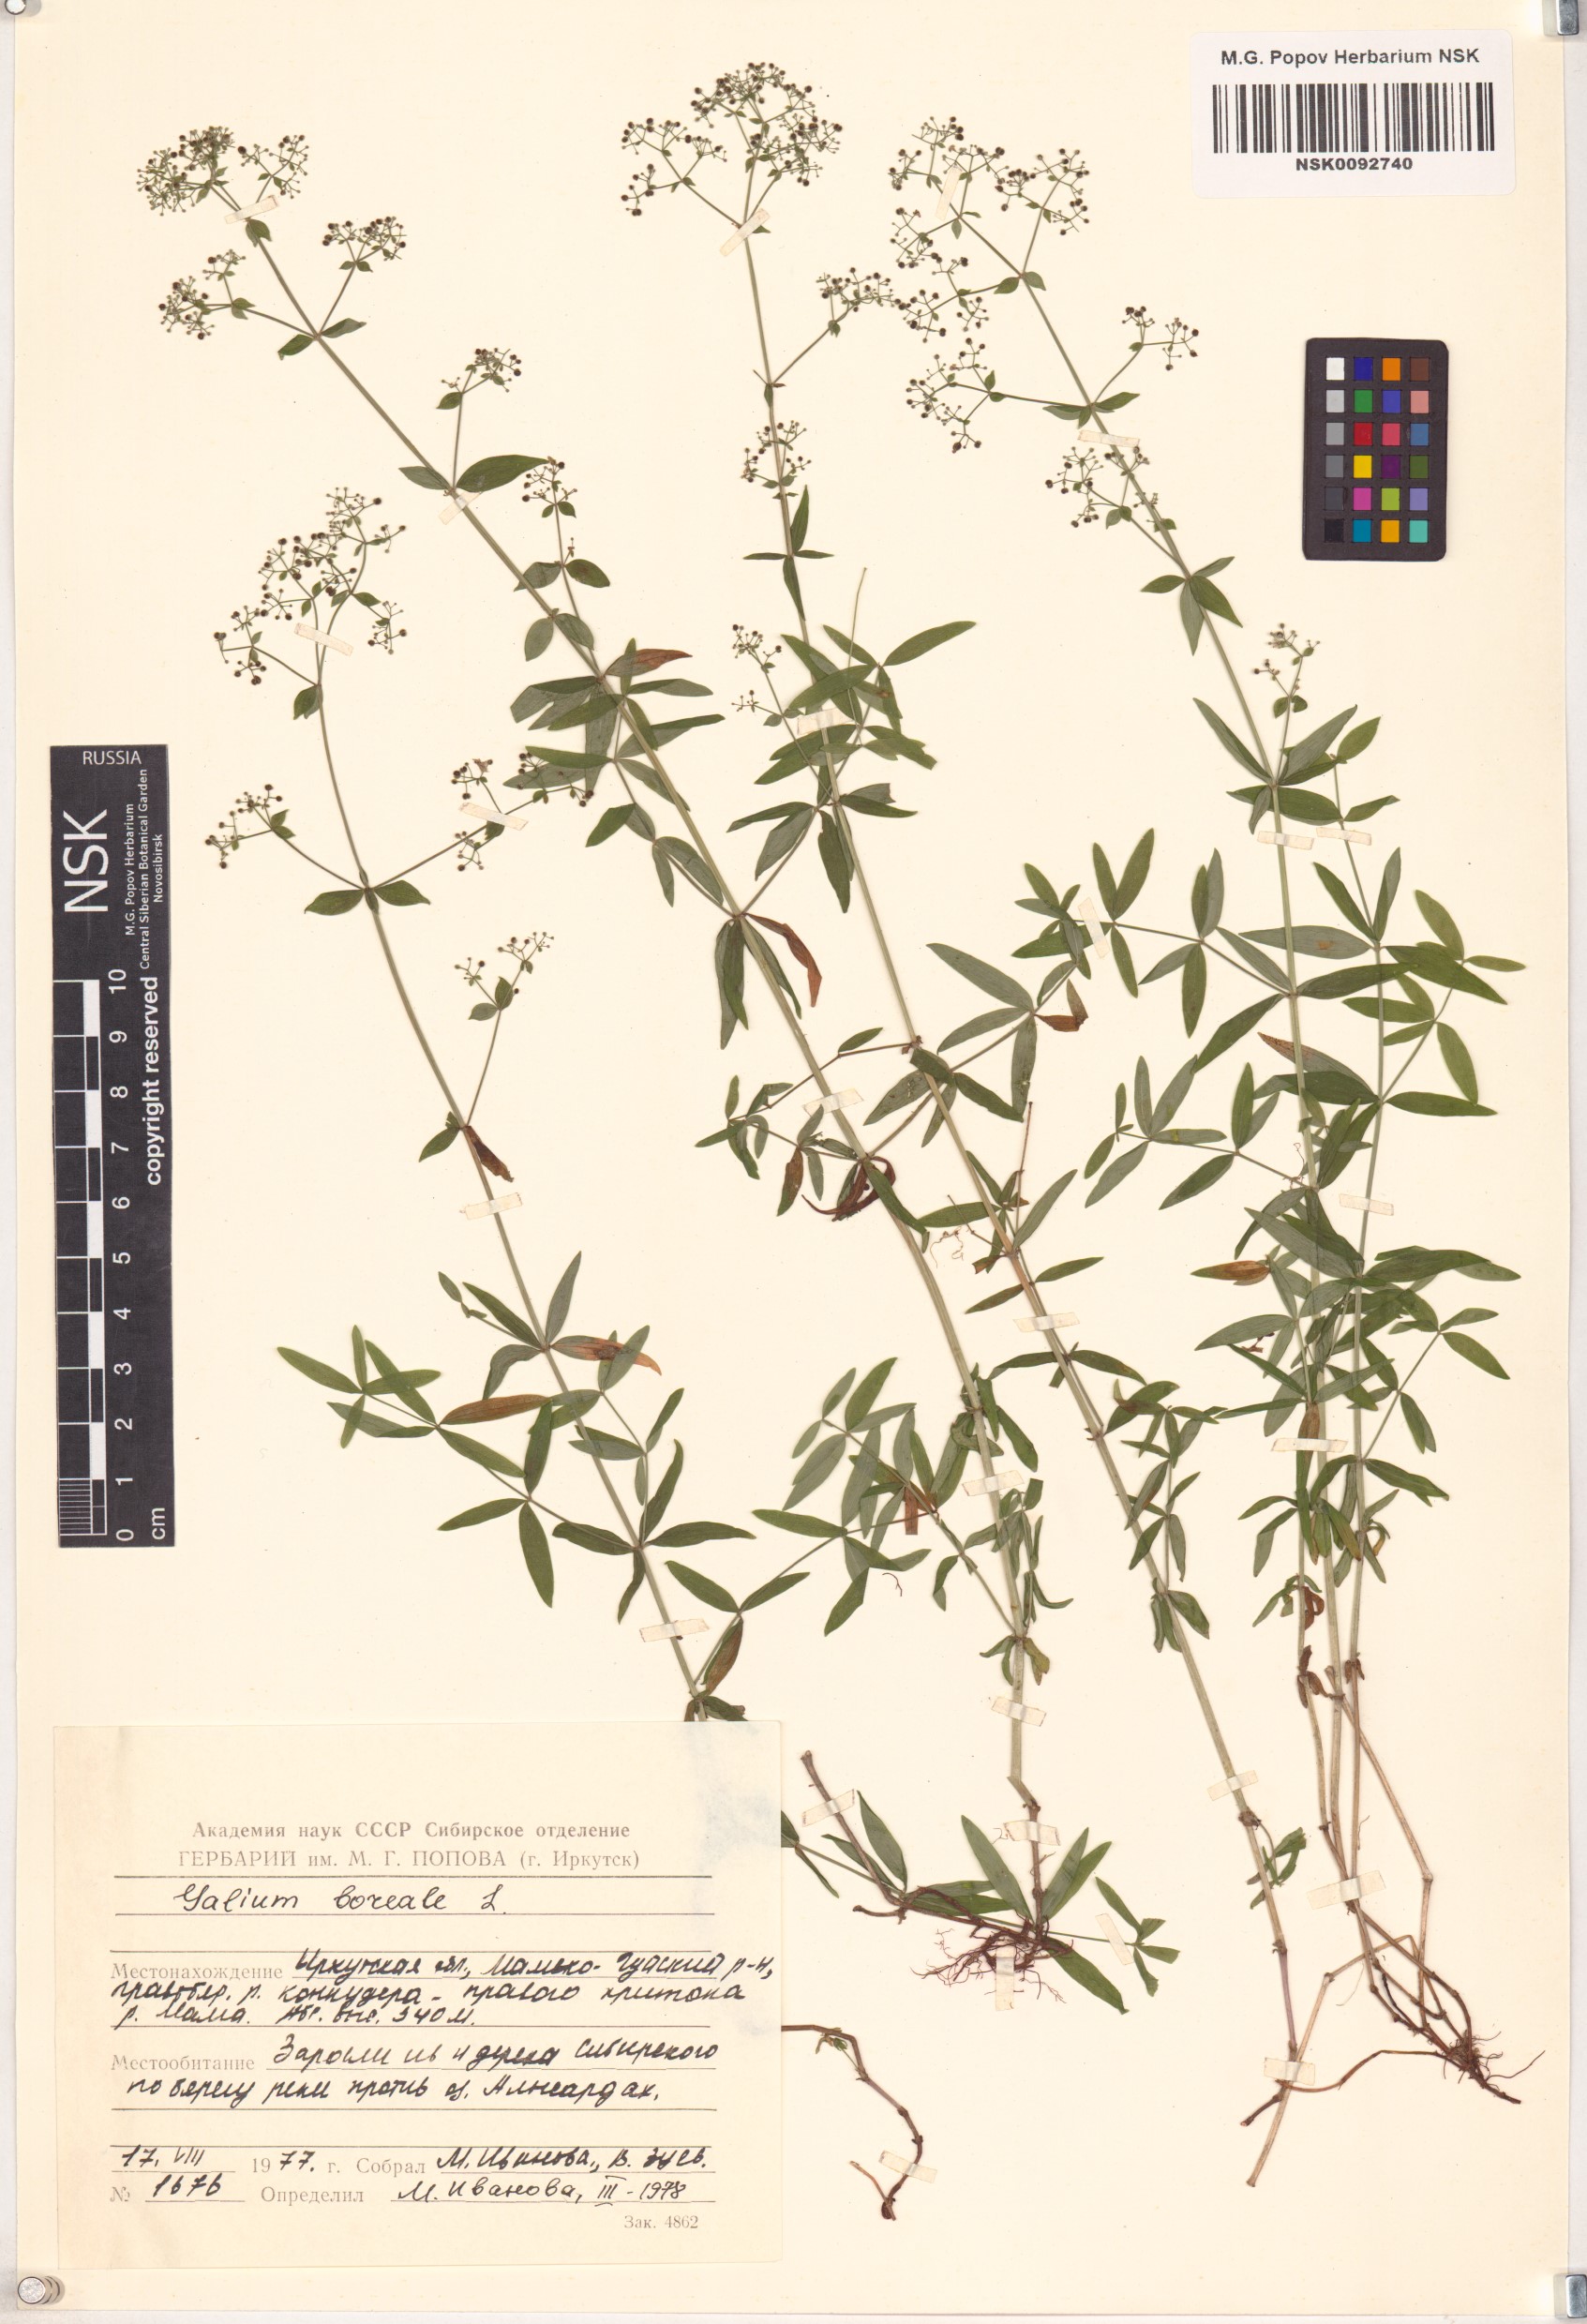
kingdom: Plantae
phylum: Tracheophyta
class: Magnoliopsida
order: Gentianales
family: Rubiaceae
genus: Galium
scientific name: Galium boreale
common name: Northern bedstraw
